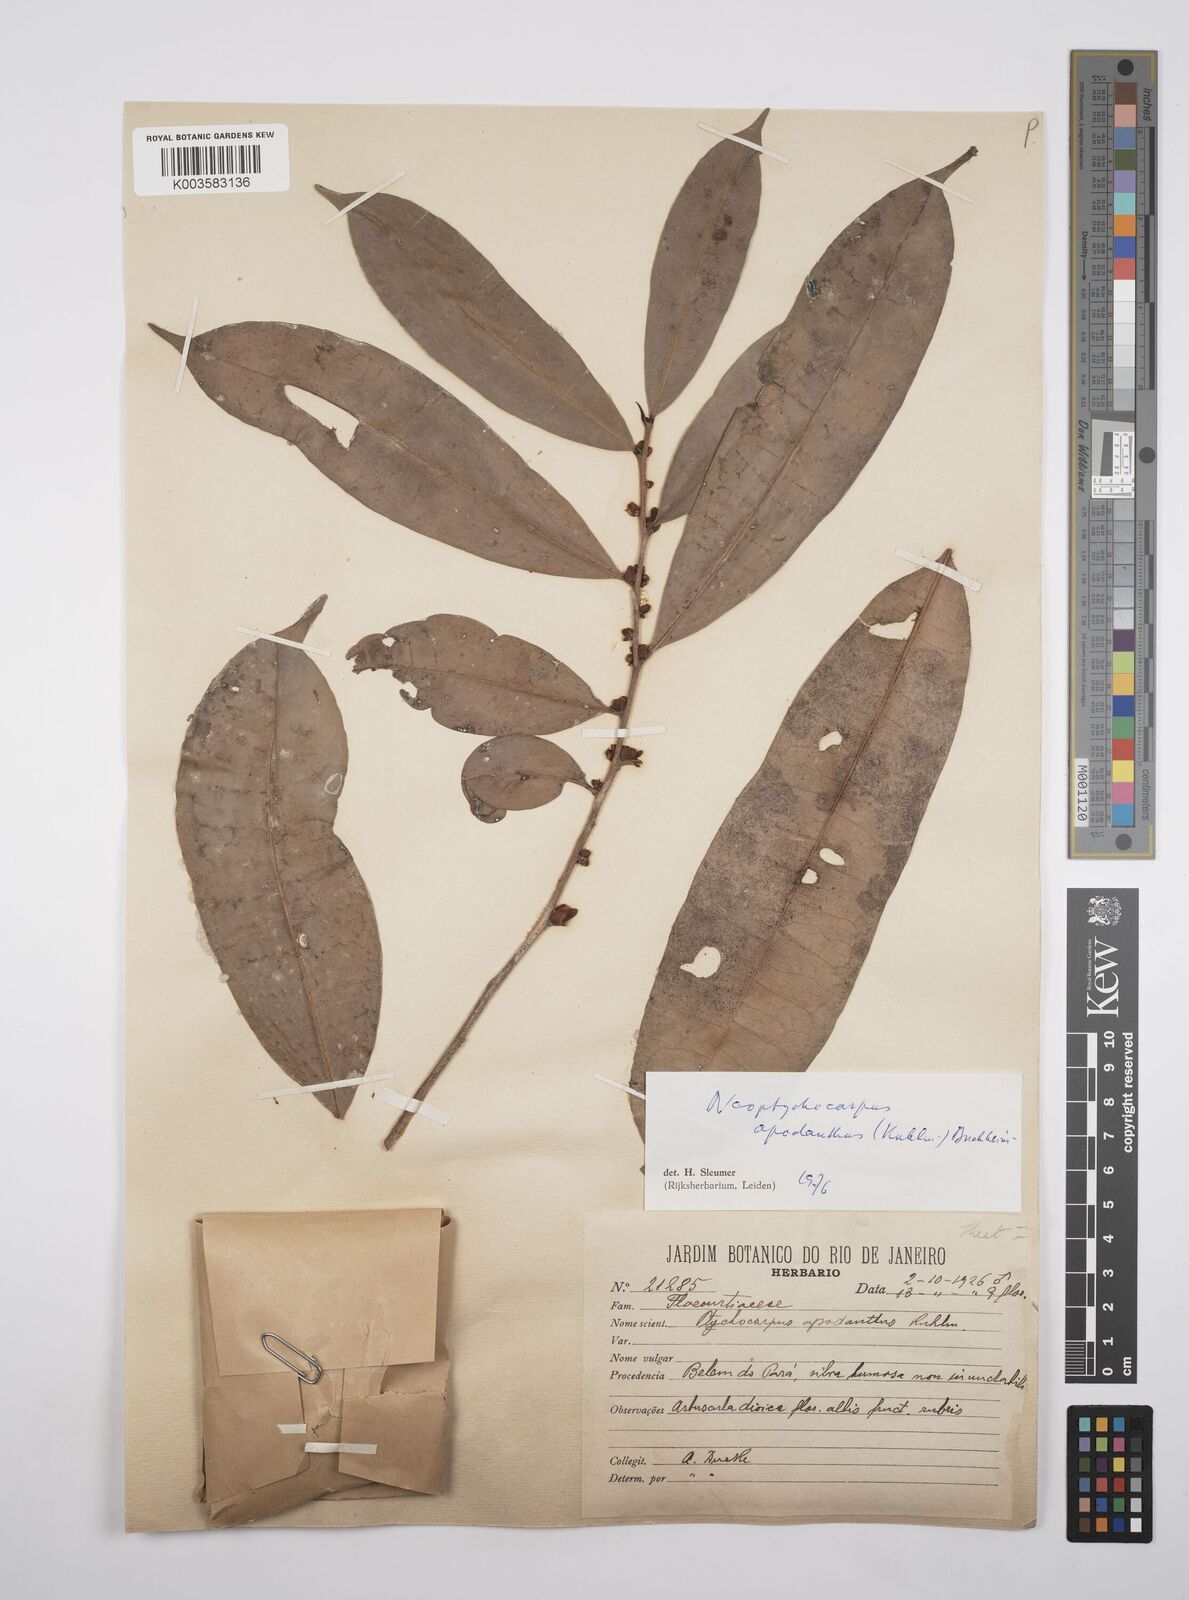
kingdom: Plantae
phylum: Tracheophyta
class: Magnoliopsida
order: Malpighiales
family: Salicaceae
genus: Casearia
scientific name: Casearia apodantha
